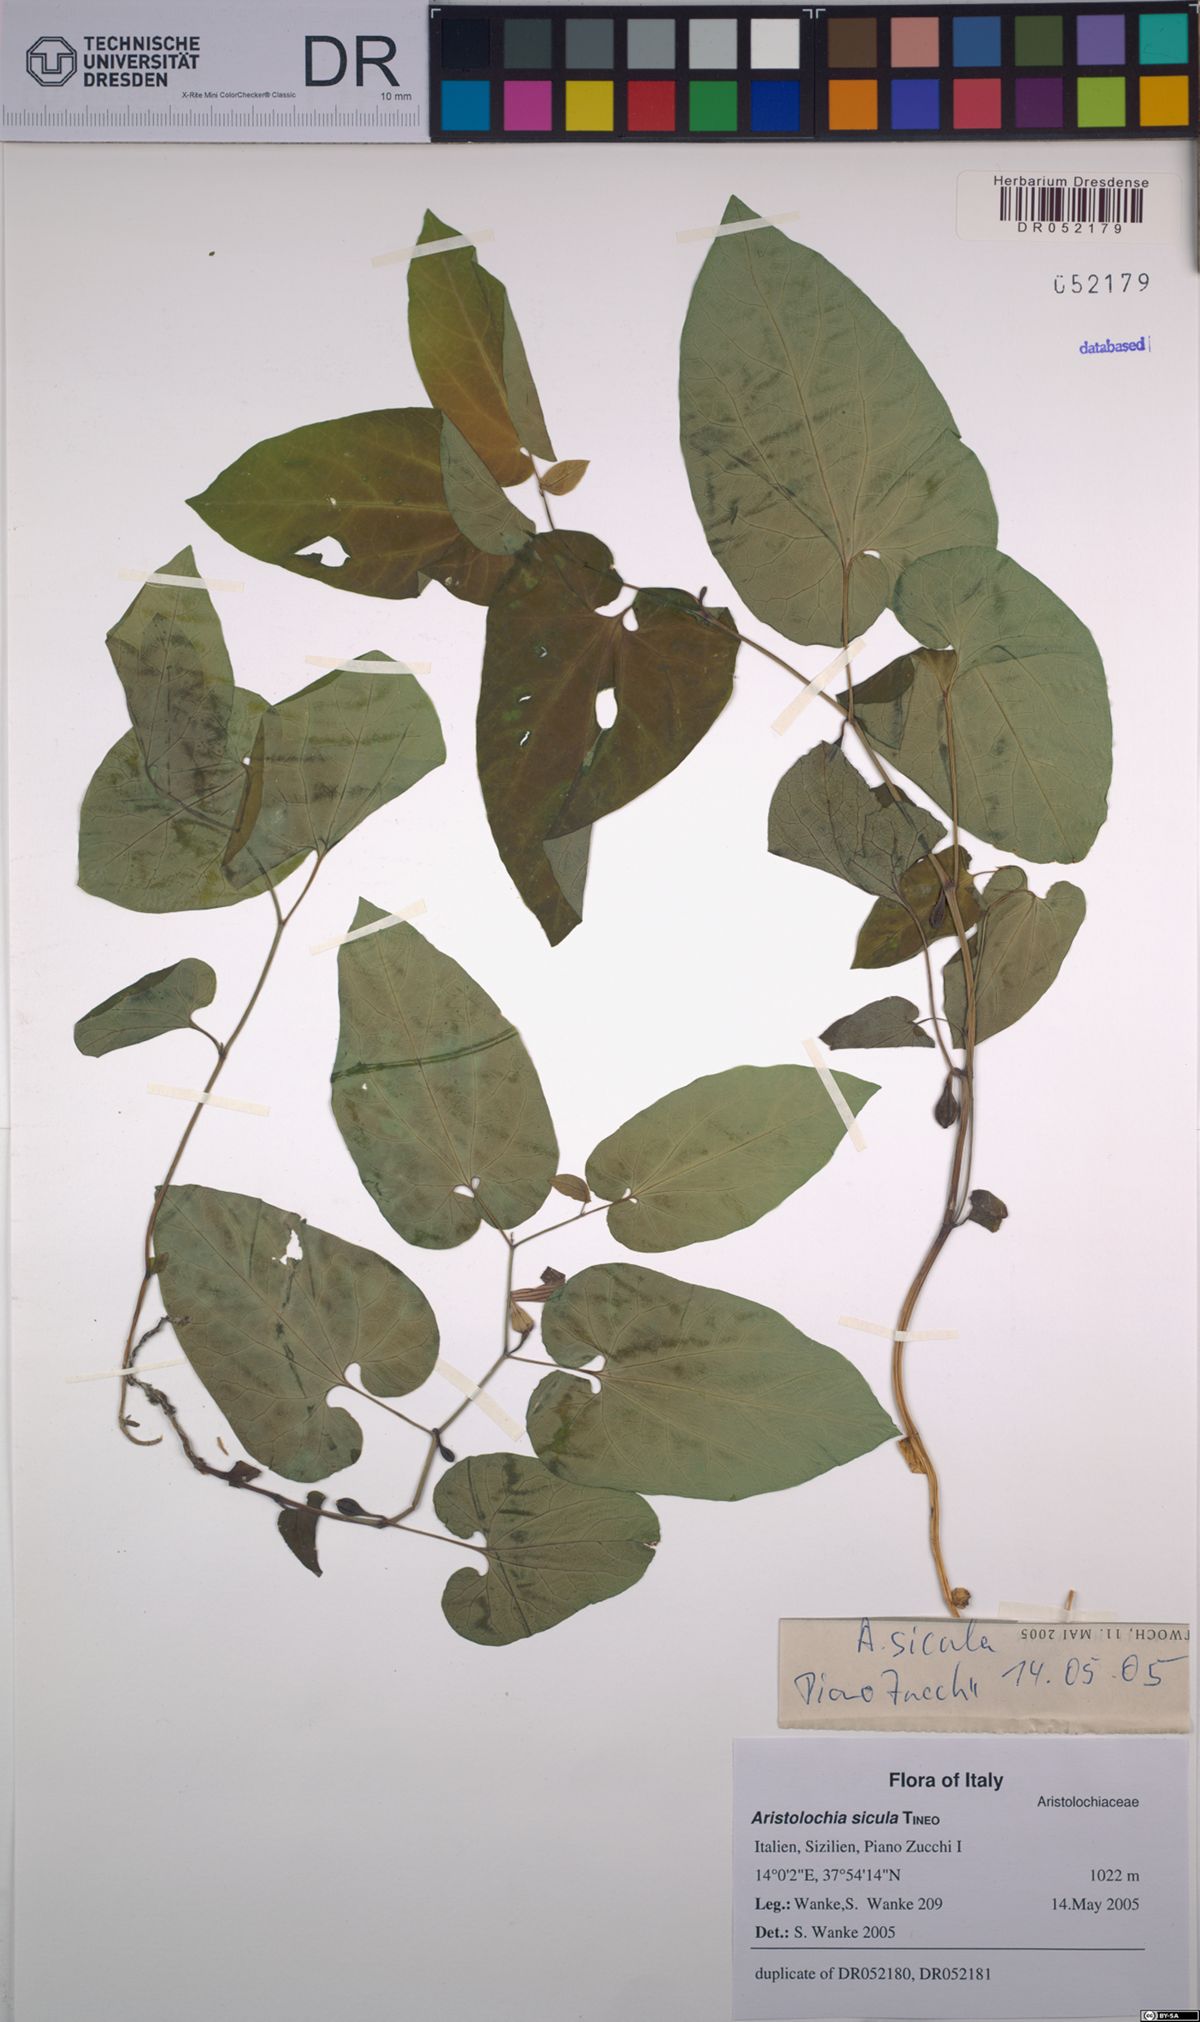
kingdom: Plantae
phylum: Tracheophyta
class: Magnoliopsida
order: Piperales
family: Aristolochiaceae
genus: Aristolochia
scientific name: Aristolochia sicula
